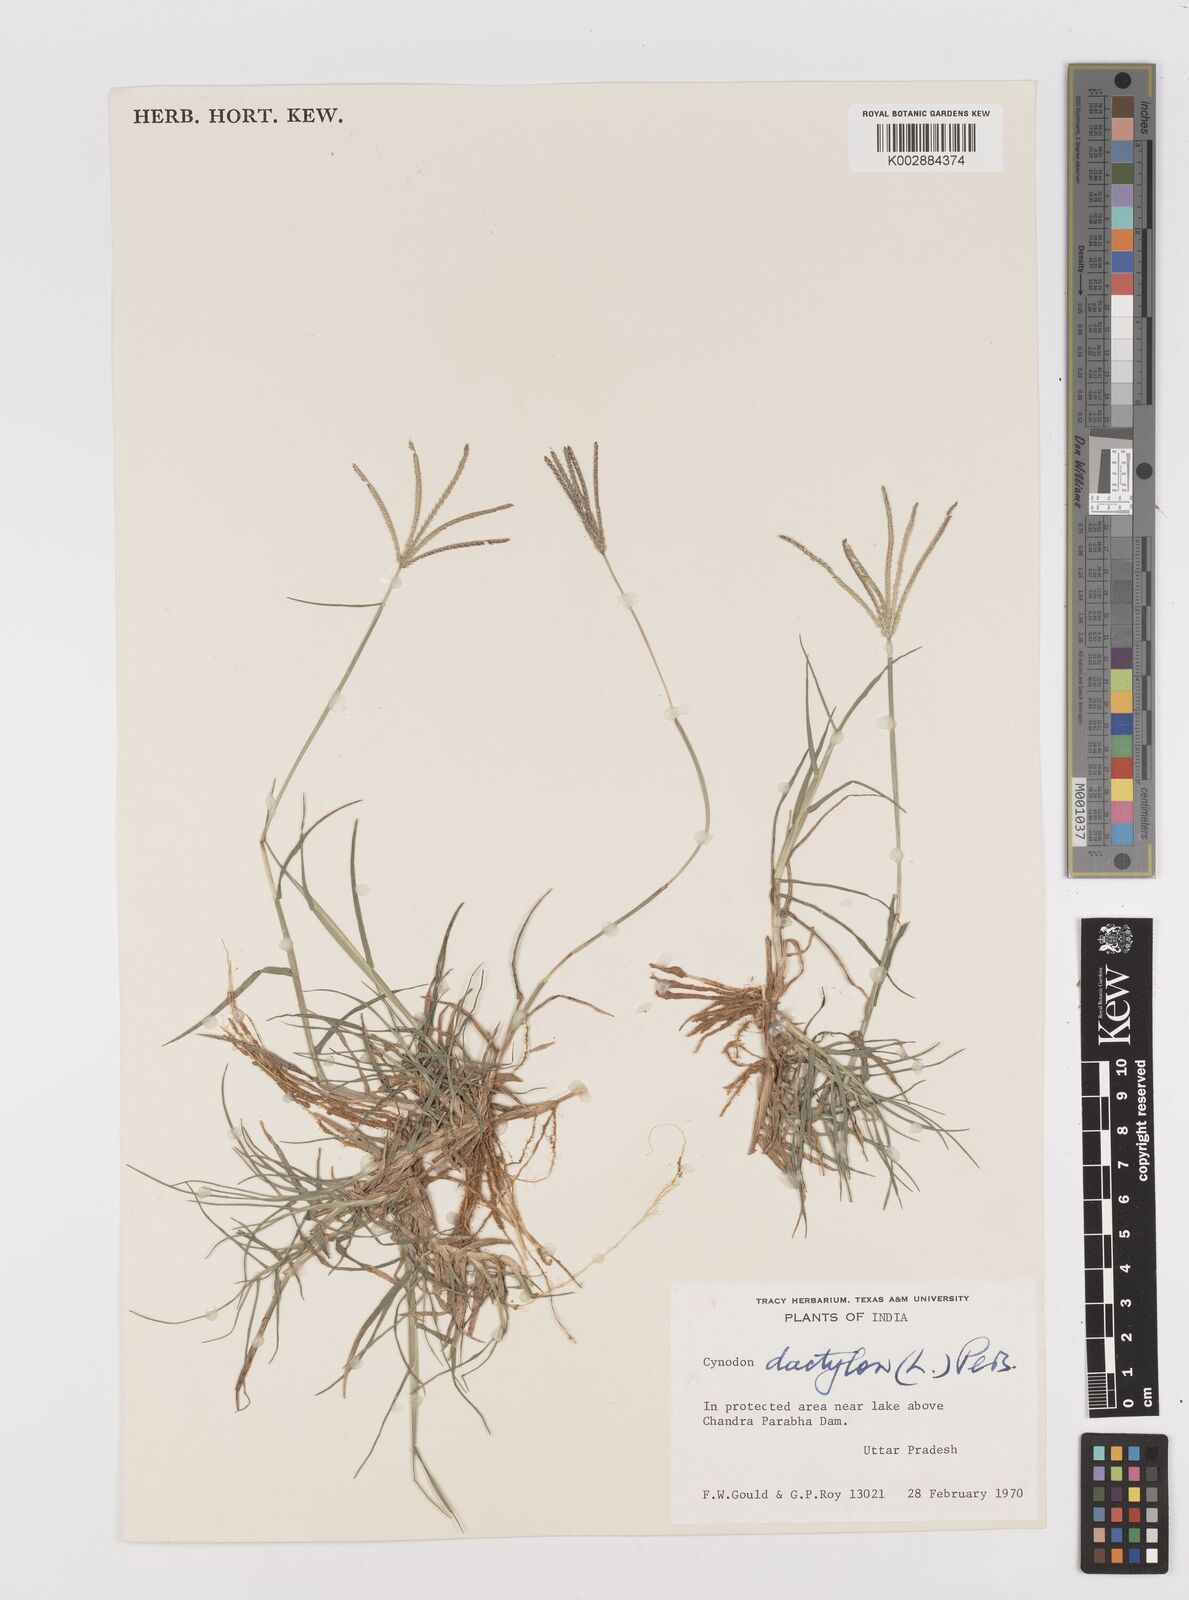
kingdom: Plantae
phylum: Tracheophyta
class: Liliopsida
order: Poales
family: Poaceae
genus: Cynodon
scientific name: Cynodon dactylon
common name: Bermuda grass
